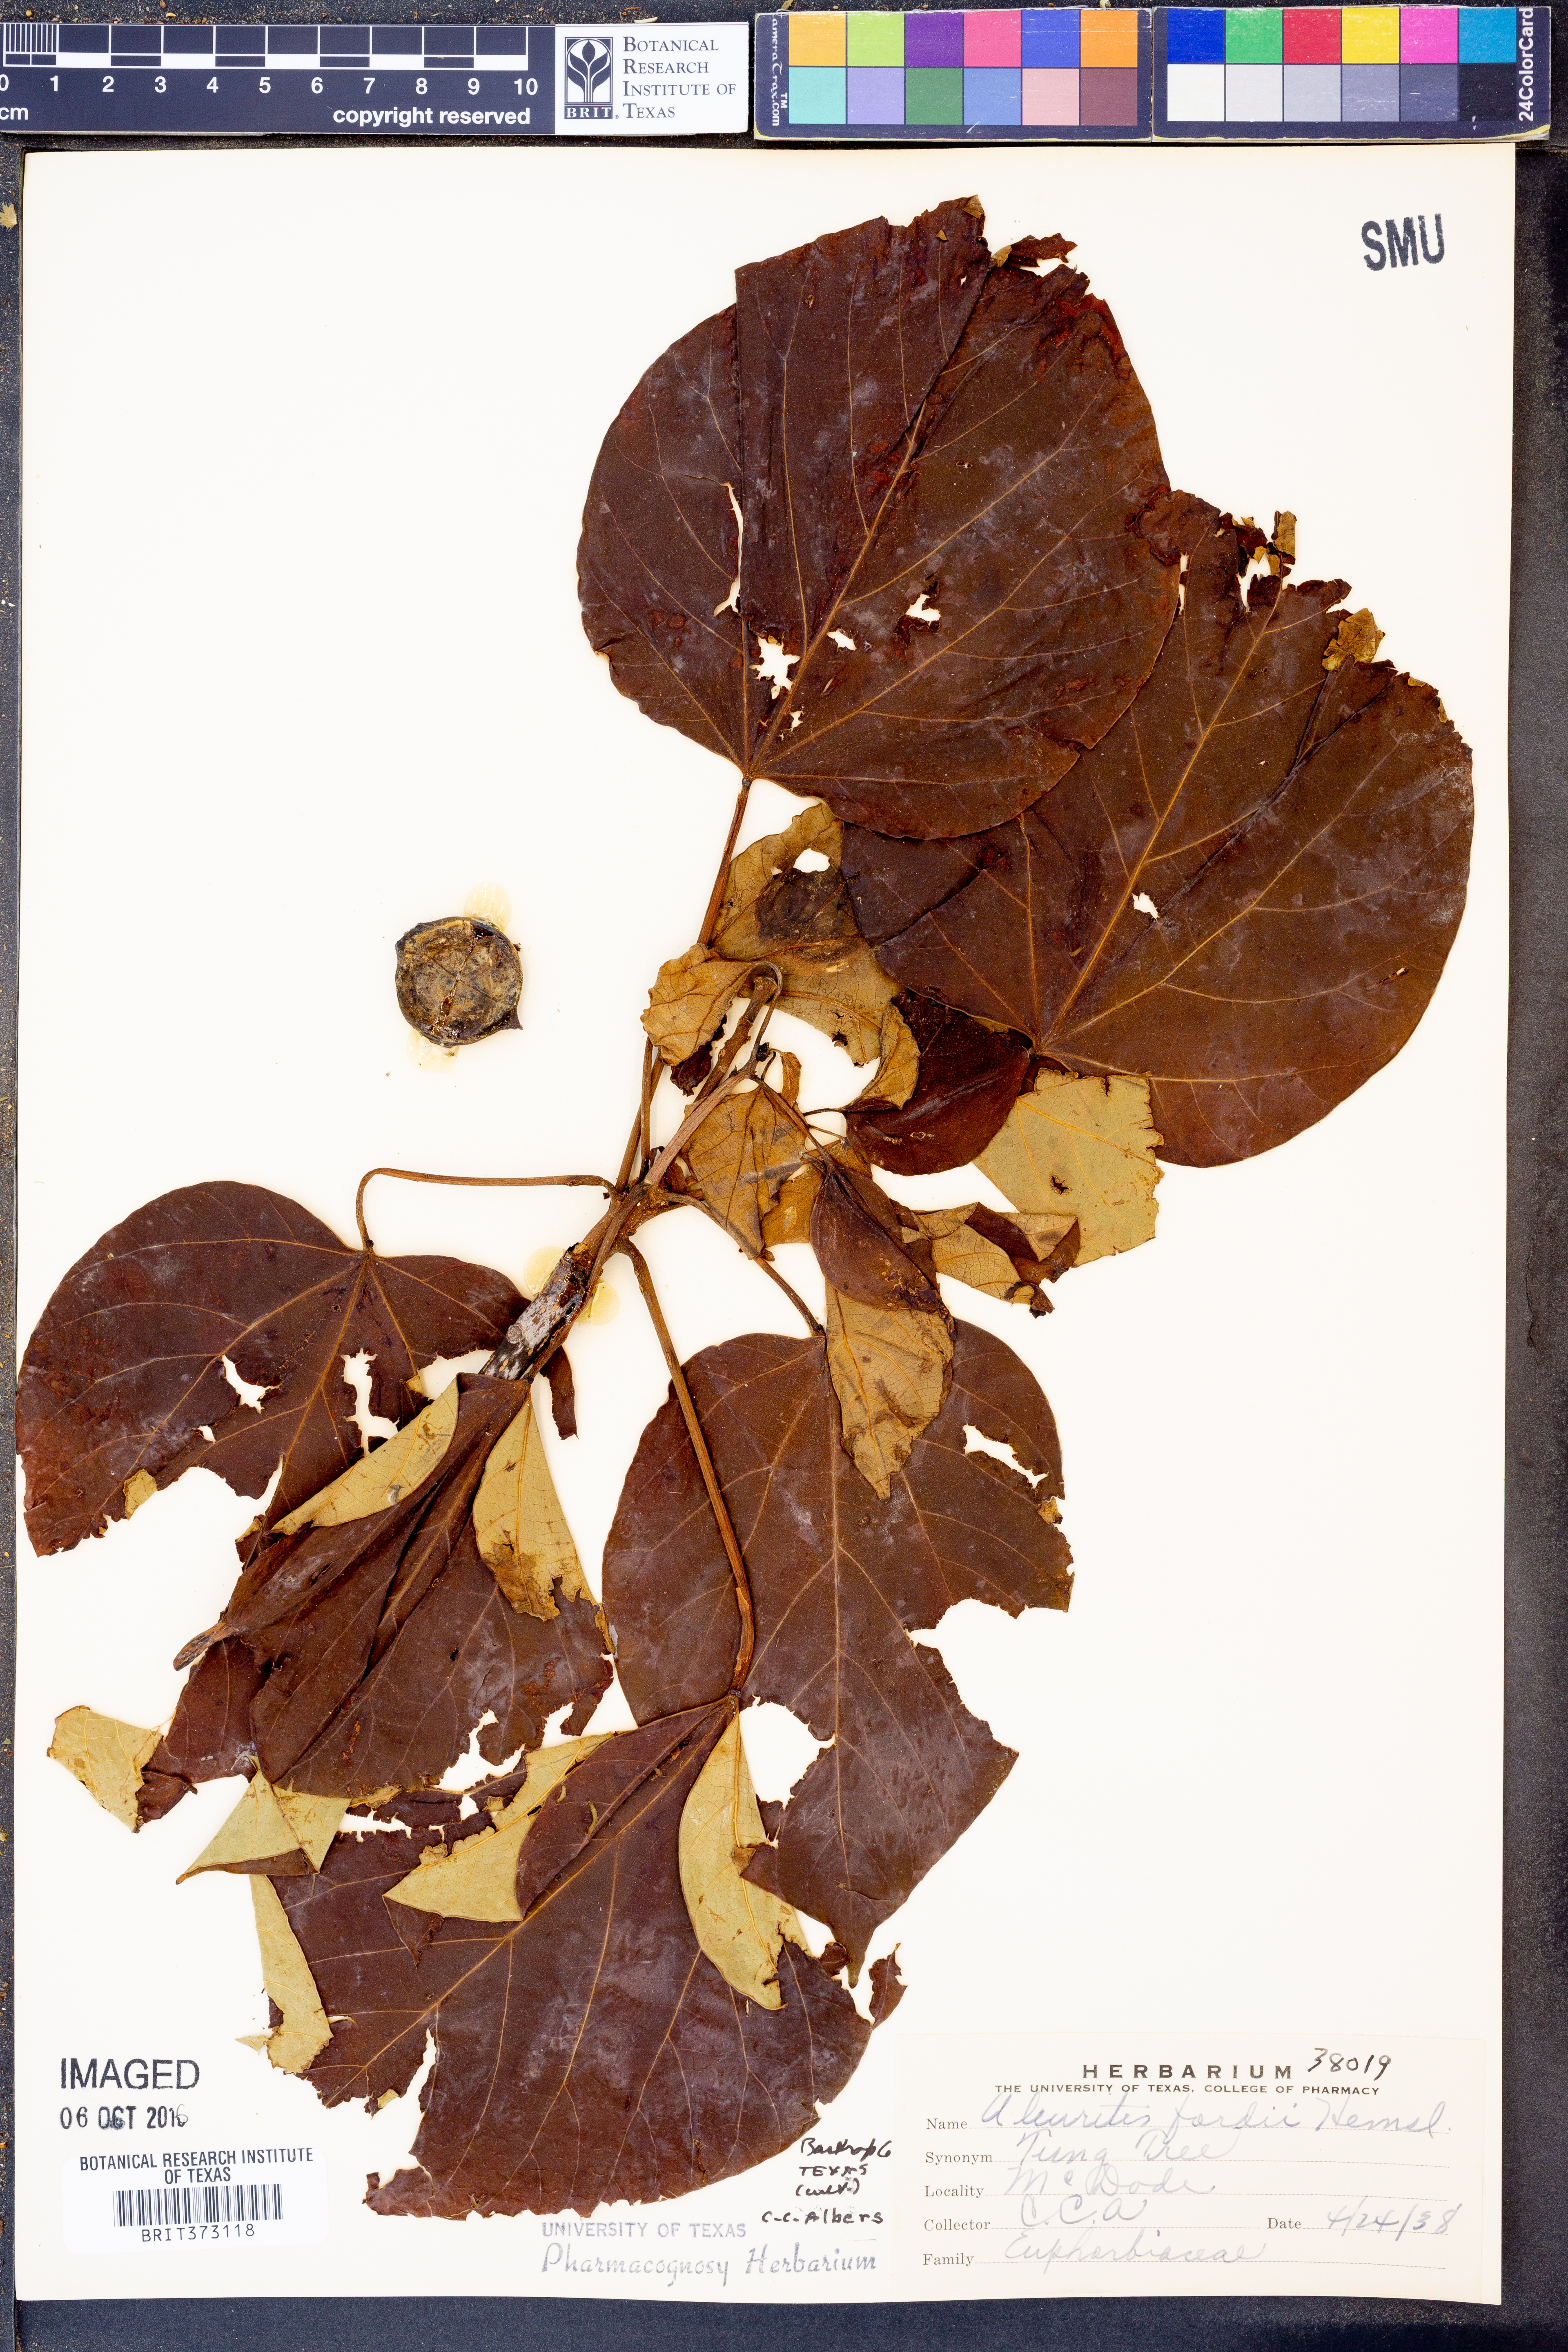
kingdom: Plantae
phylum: Tracheophyta
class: Magnoliopsida
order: Malpighiales
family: Euphorbiaceae
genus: Vernicia
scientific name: Vernicia fordii
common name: Tungoil tree
